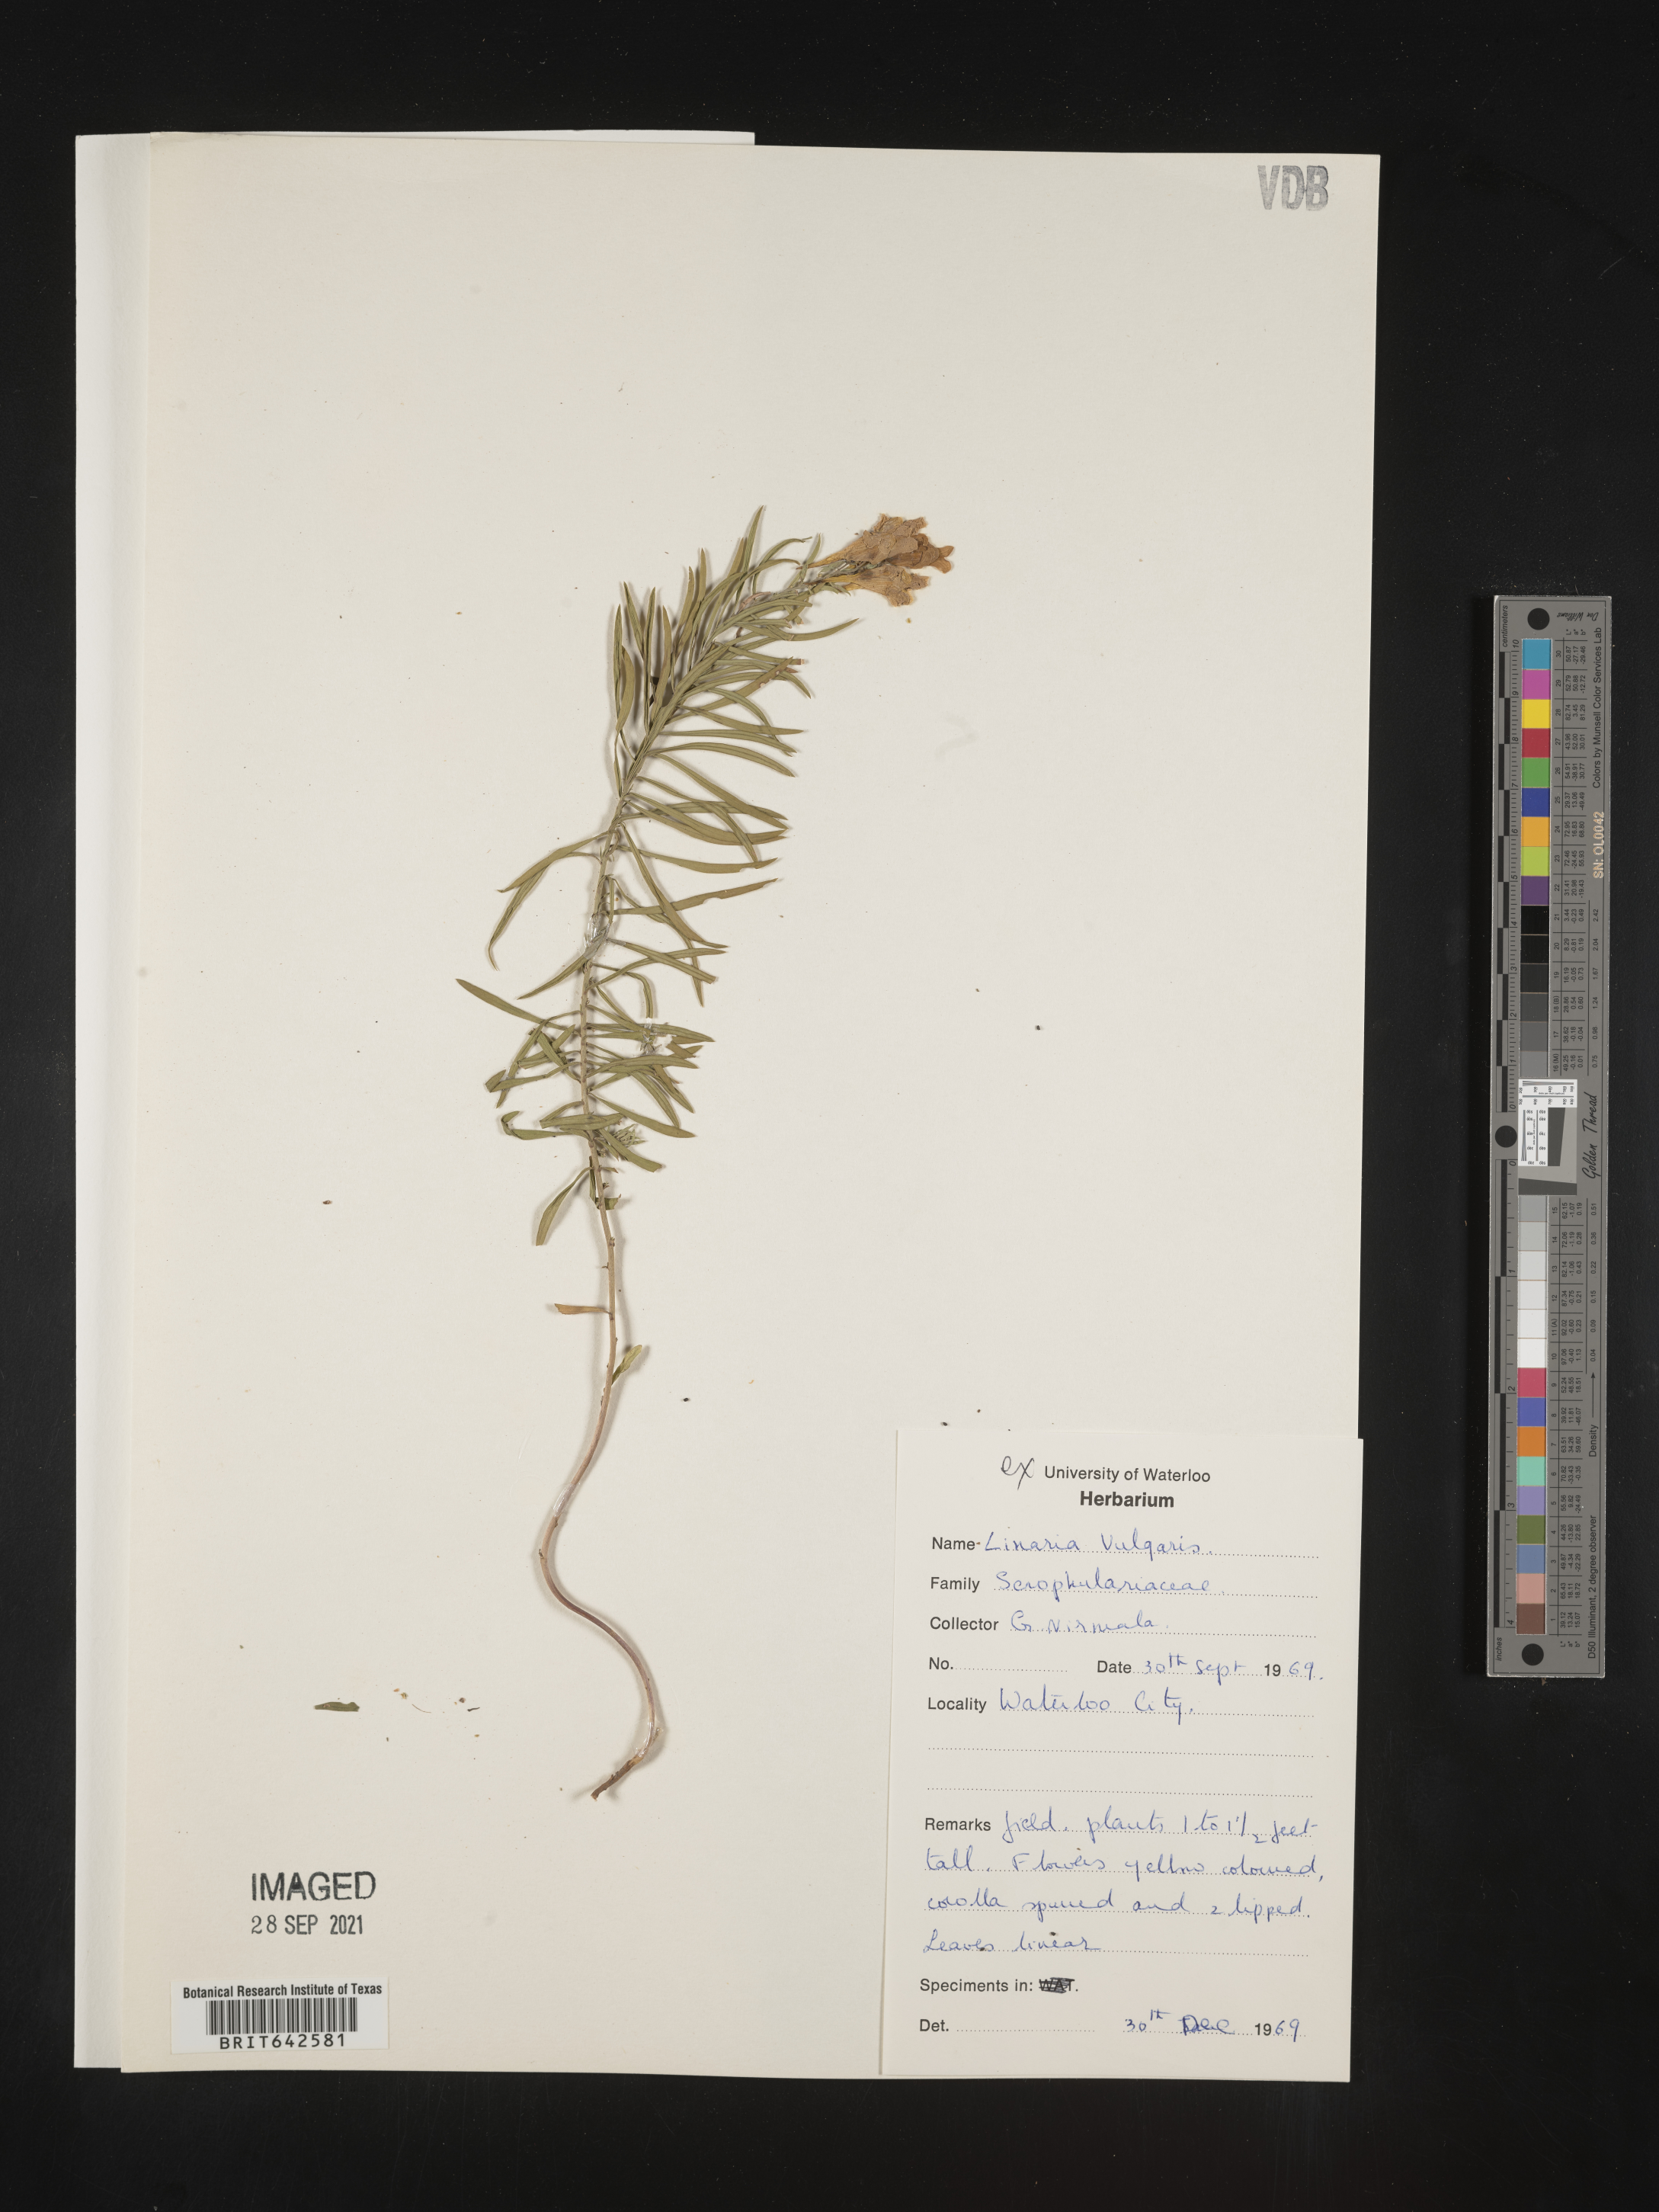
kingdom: Plantae
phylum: Tracheophyta
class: Magnoliopsida
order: Lamiales
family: Plantaginaceae
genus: Linaria
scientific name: Linaria
